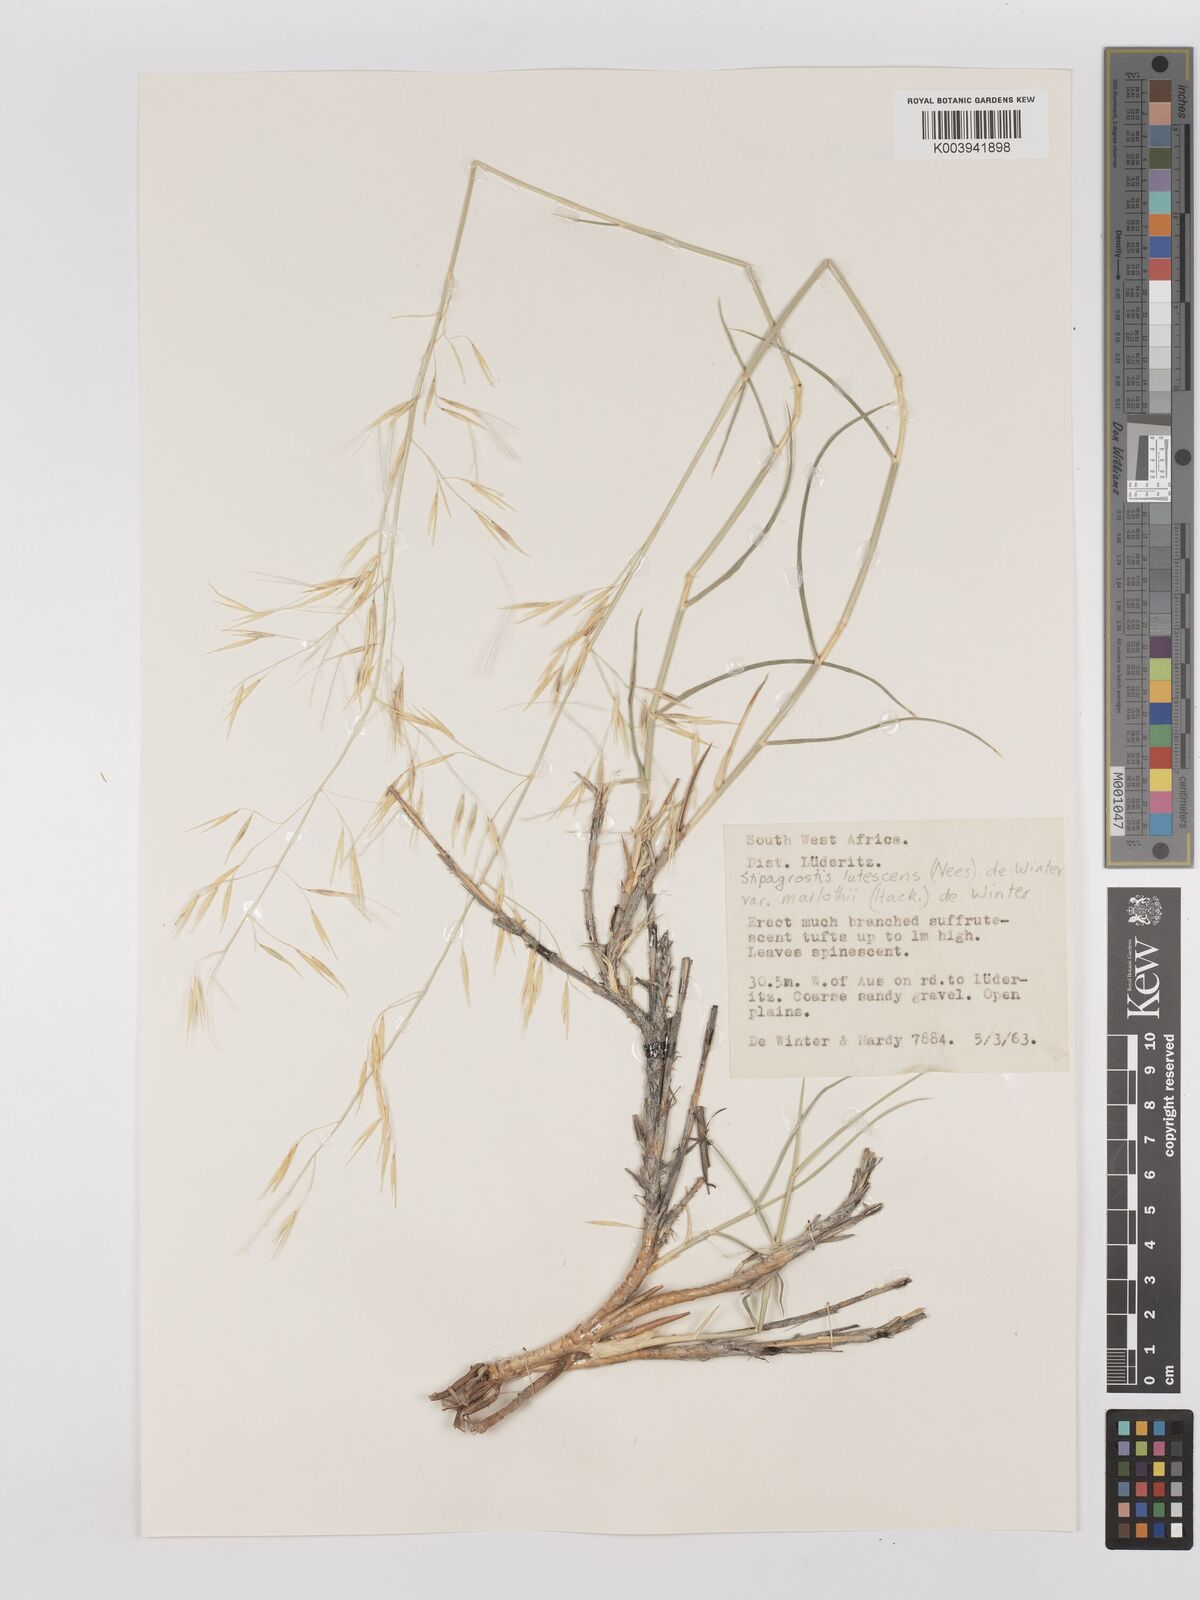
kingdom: Plantae
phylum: Tracheophyta
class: Liliopsida
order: Poales
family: Poaceae
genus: Stipagrostis
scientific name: Stipagrostis lutescens
